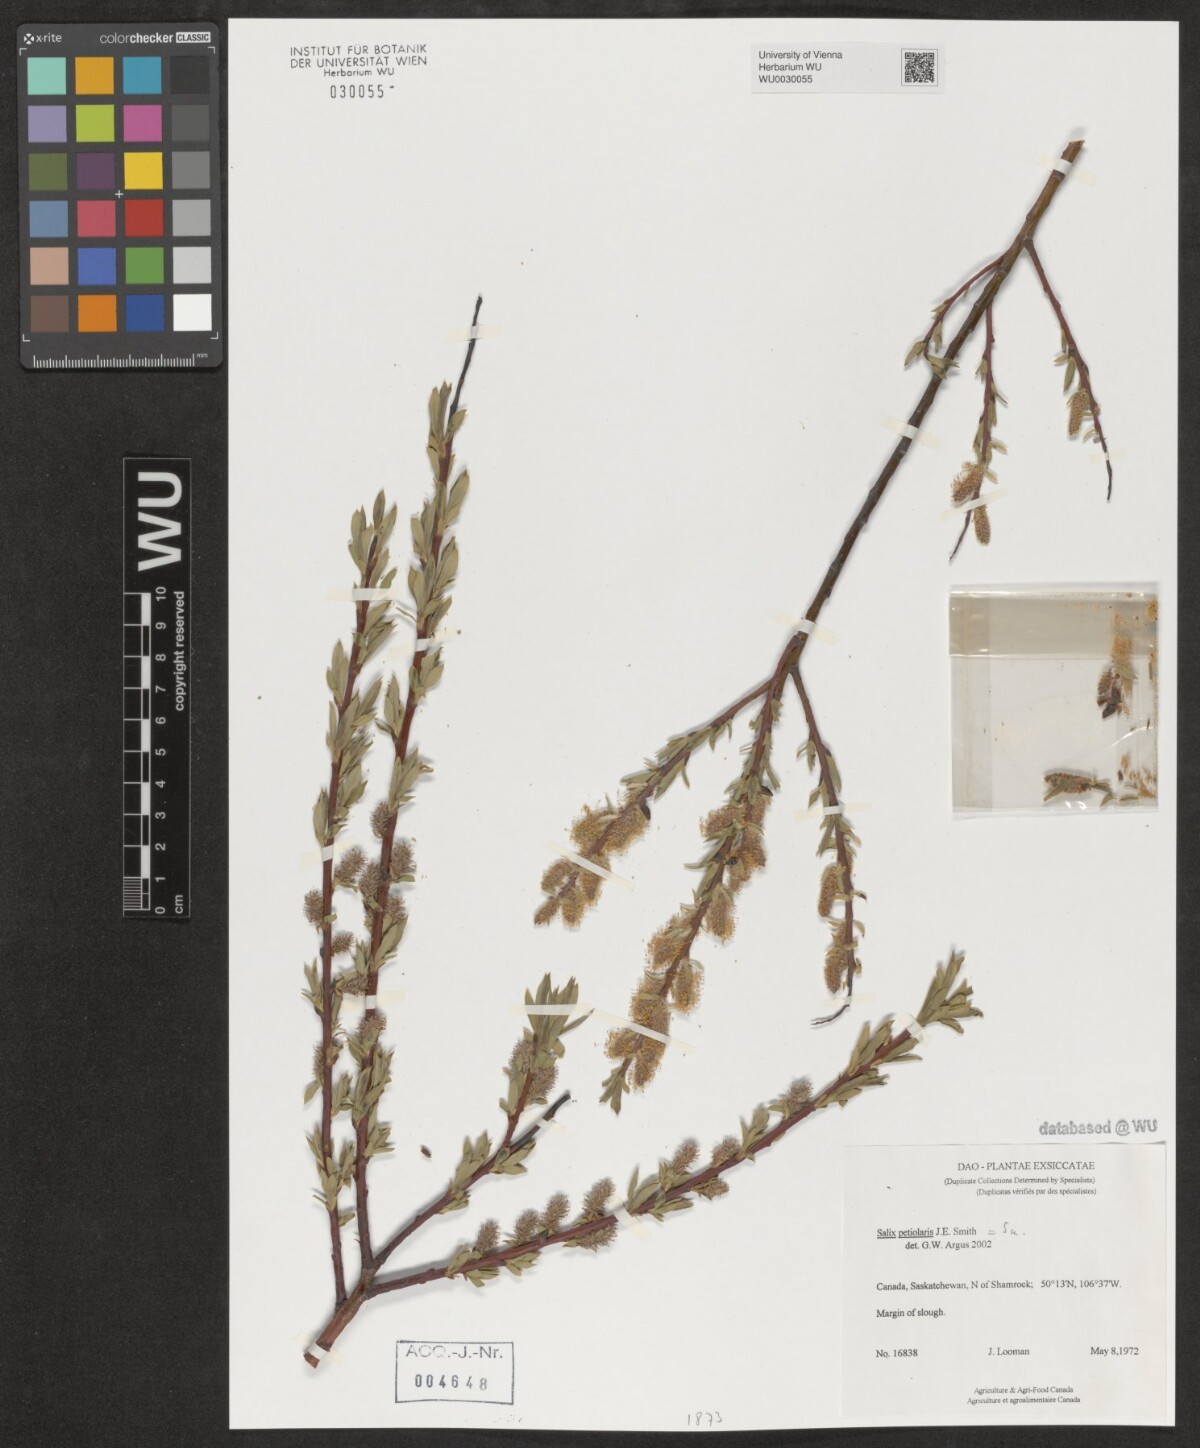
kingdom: Plantae
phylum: Tracheophyta
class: Magnoliopsida
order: Malpighiales
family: Salicaceae
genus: Salix
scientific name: Salix petiolaris
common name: Slender willow
